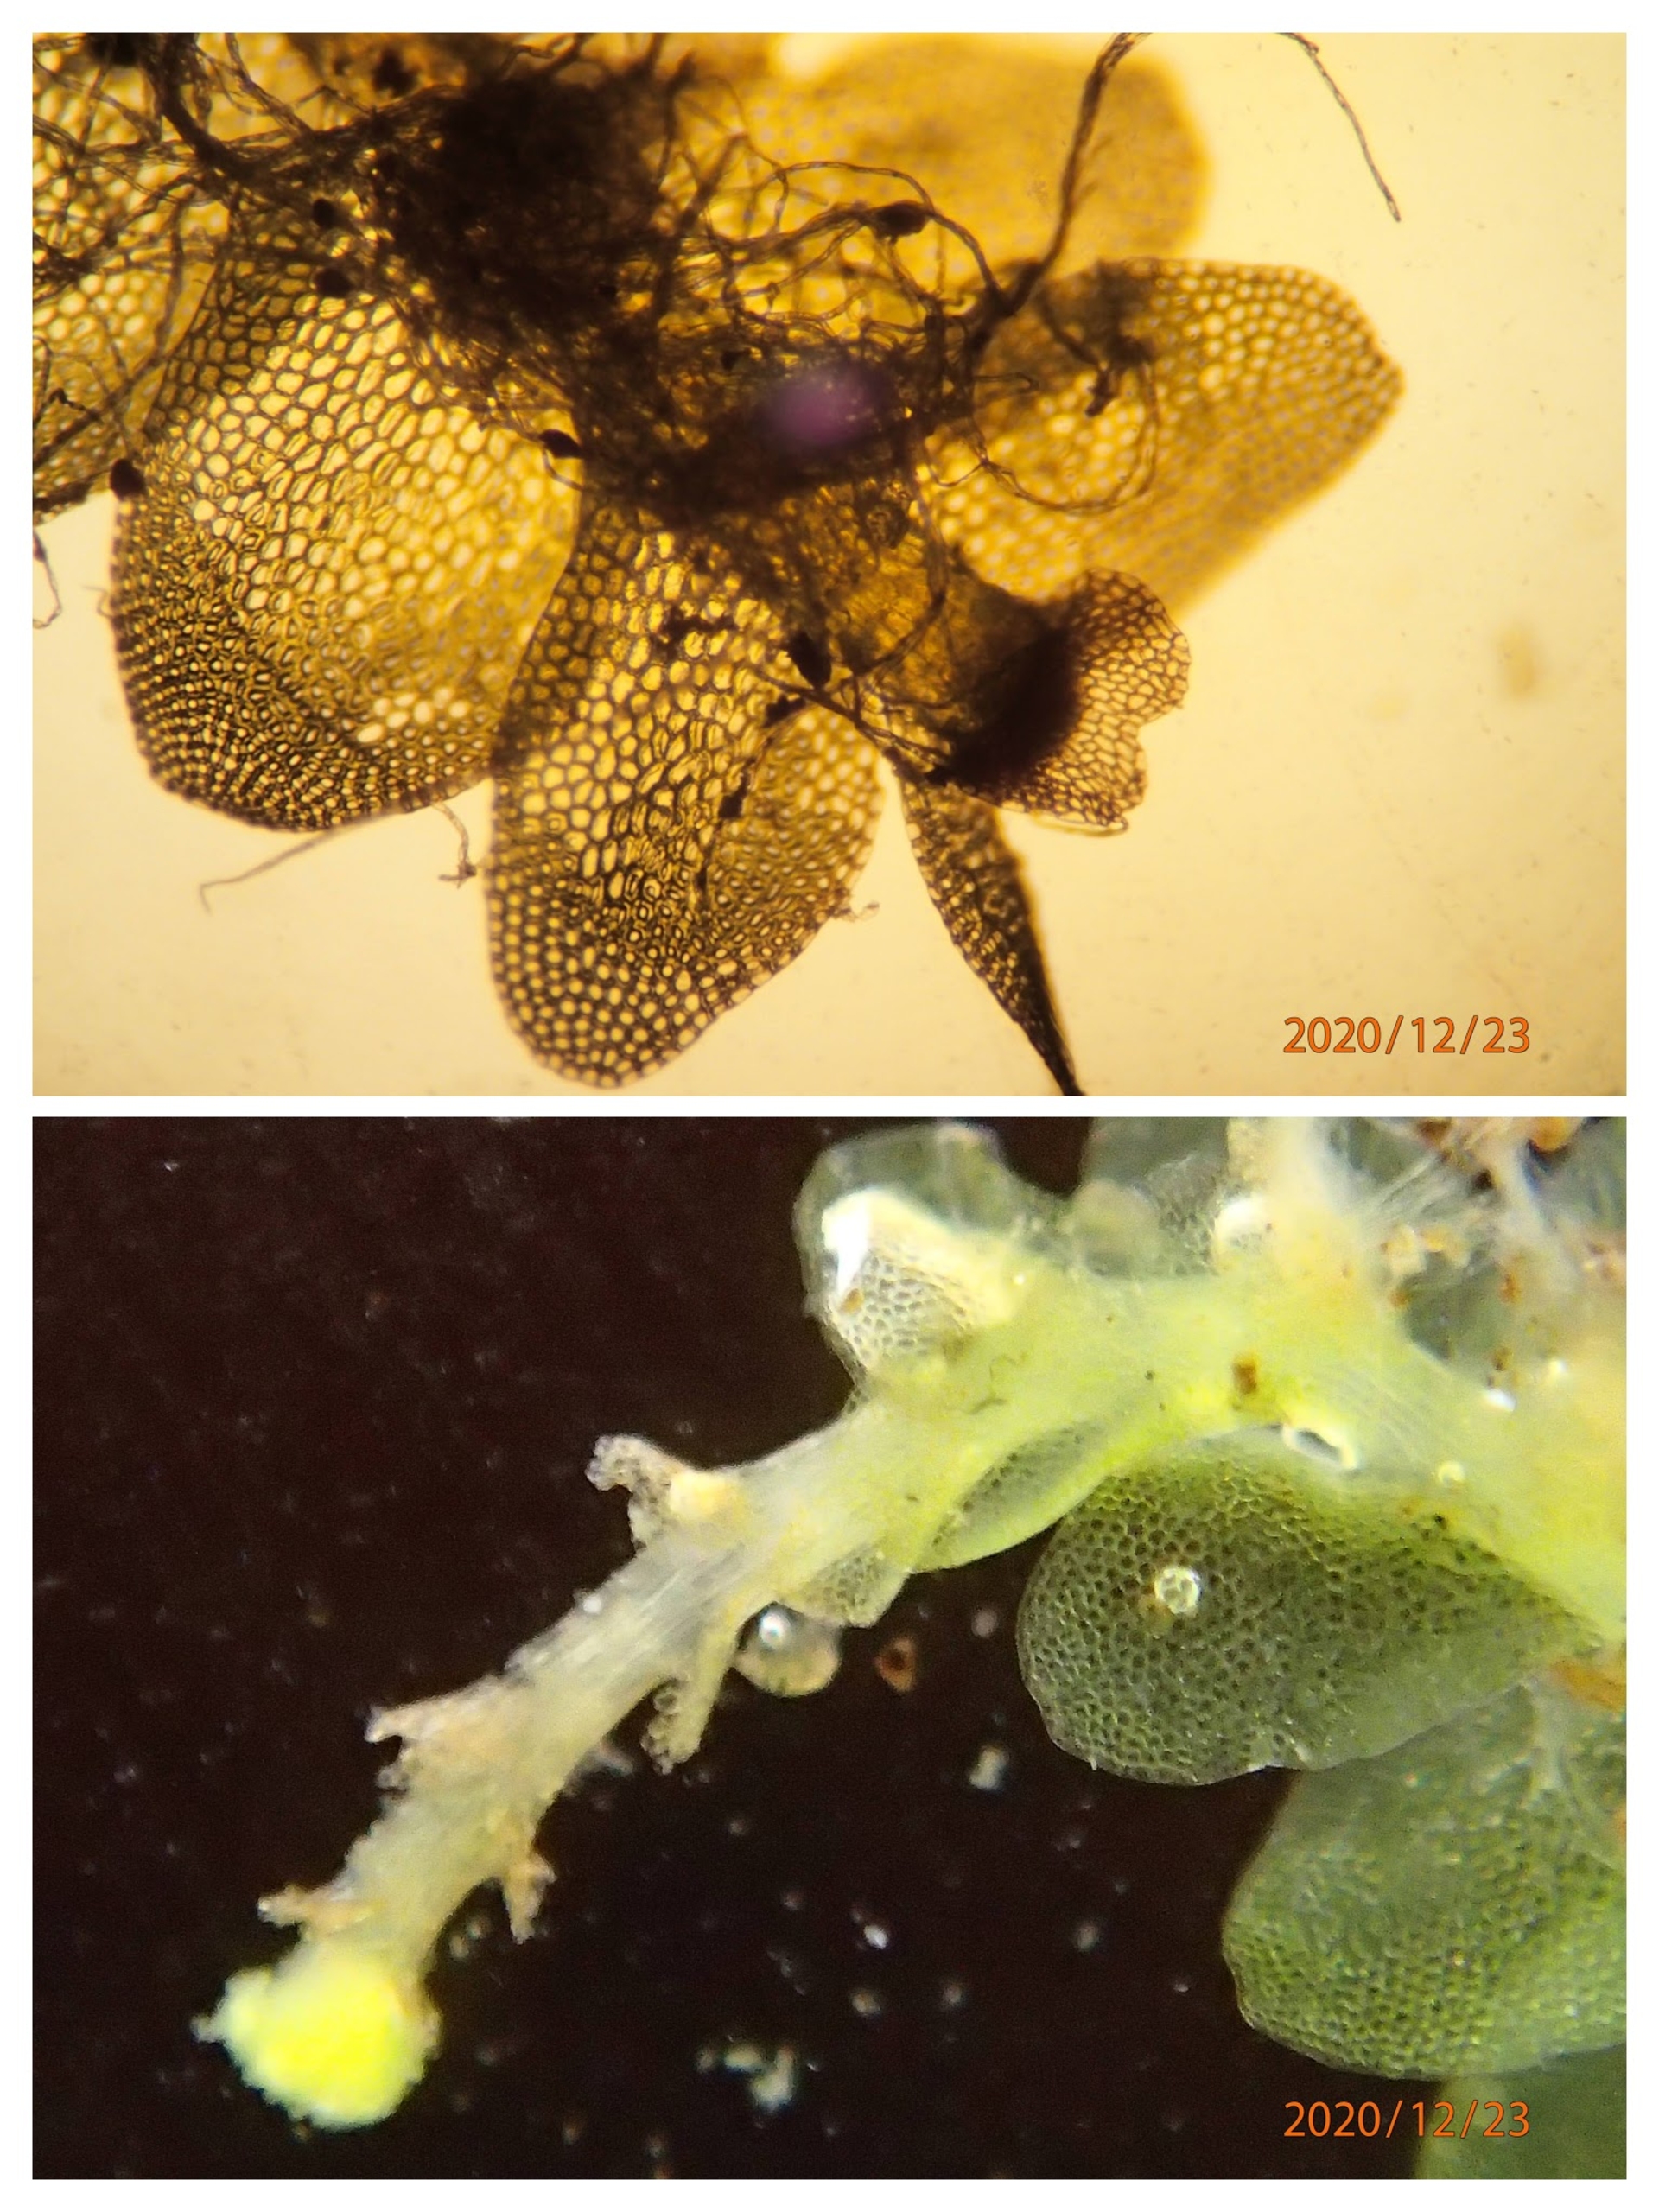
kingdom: Plantae
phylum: Marchantiophyta
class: Jungermanniopsida
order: Jungermanniales
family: Calypogeiaceae
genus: Calypogeia
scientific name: Calypogeia muelleriana
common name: Almindelig sækmos
